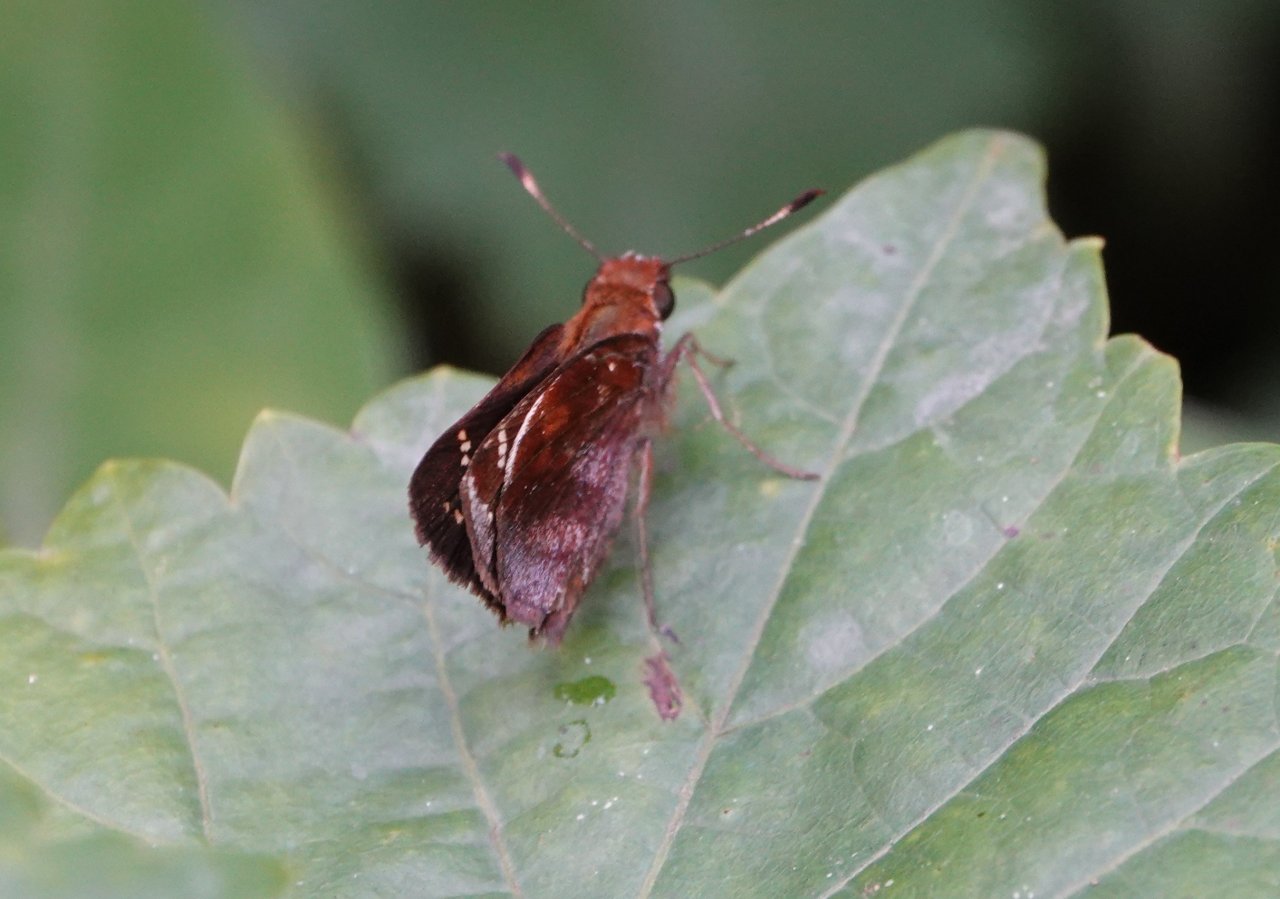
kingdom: Animalia
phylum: Arthropoda
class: Insecta
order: Lepidoptera
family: Hesperiidae
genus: Lon
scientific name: Lon zabulon
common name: Zabulon Skipper
